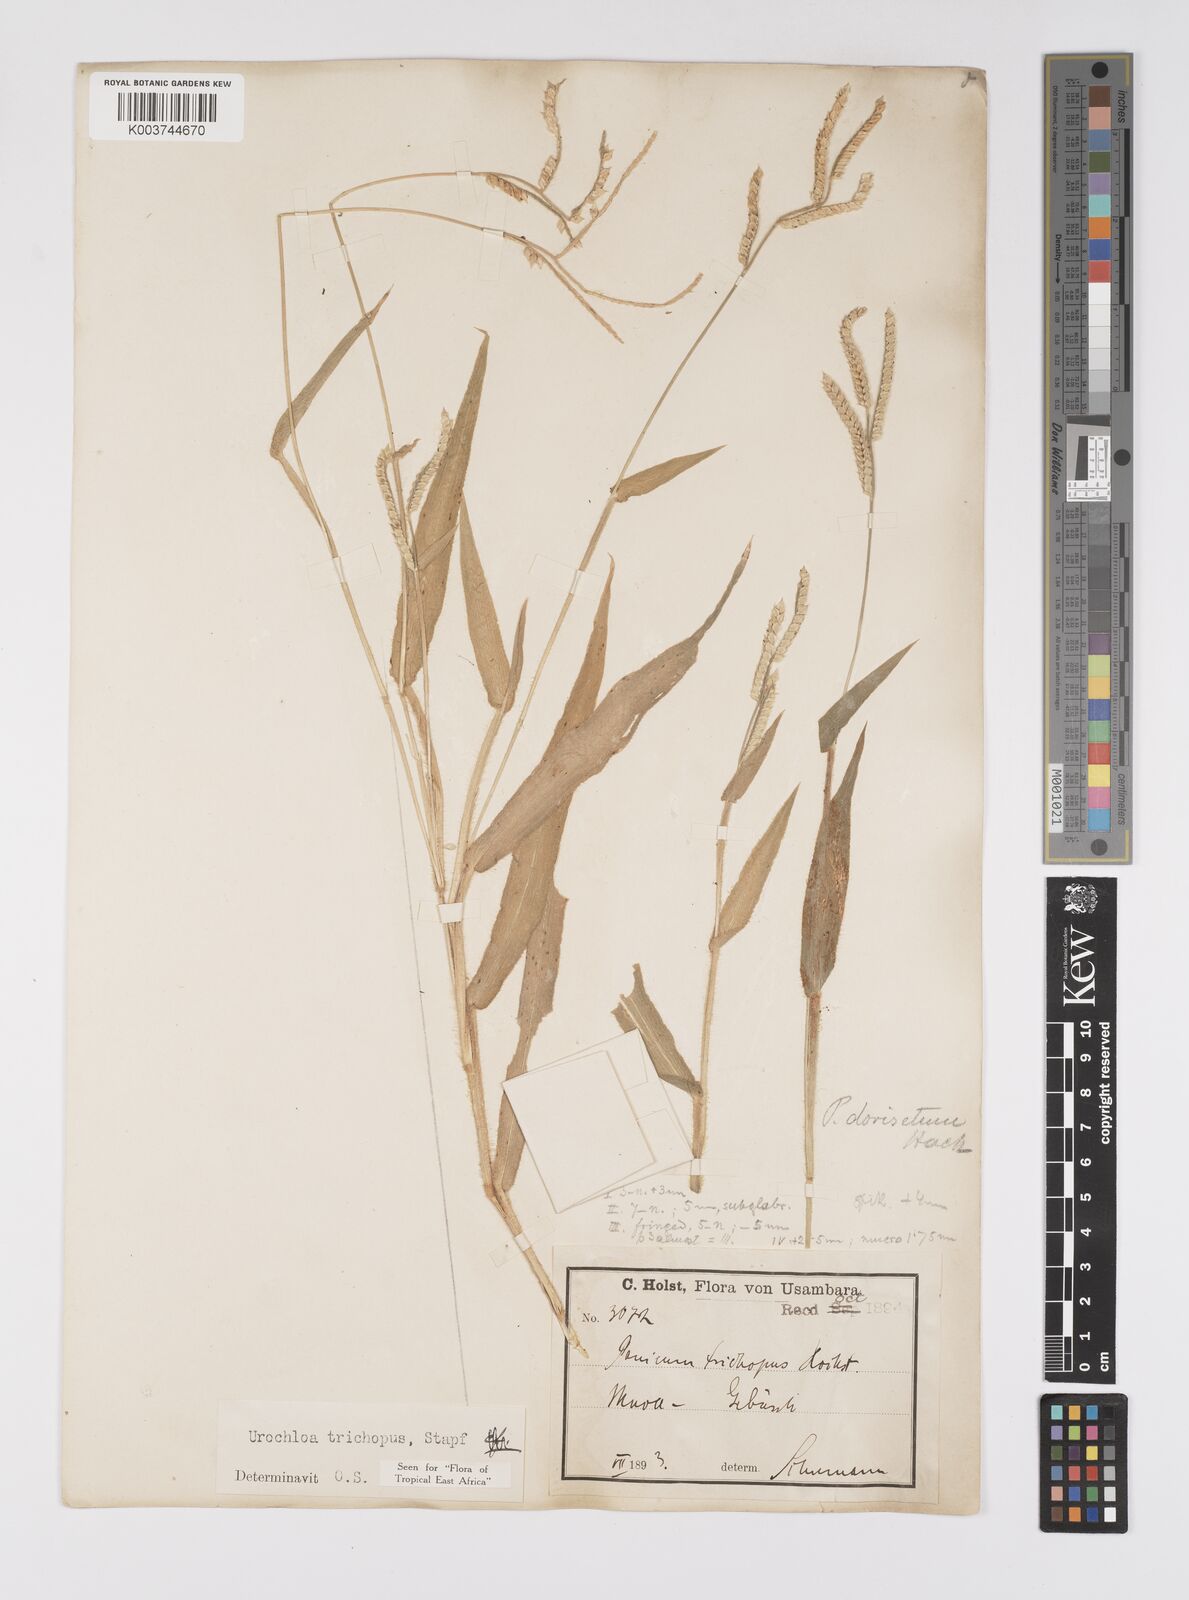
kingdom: Plantae
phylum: Tracheophyta
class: Liliopsida
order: Poales
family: Poaceae
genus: Urochloa
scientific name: Urochloa trichopus
